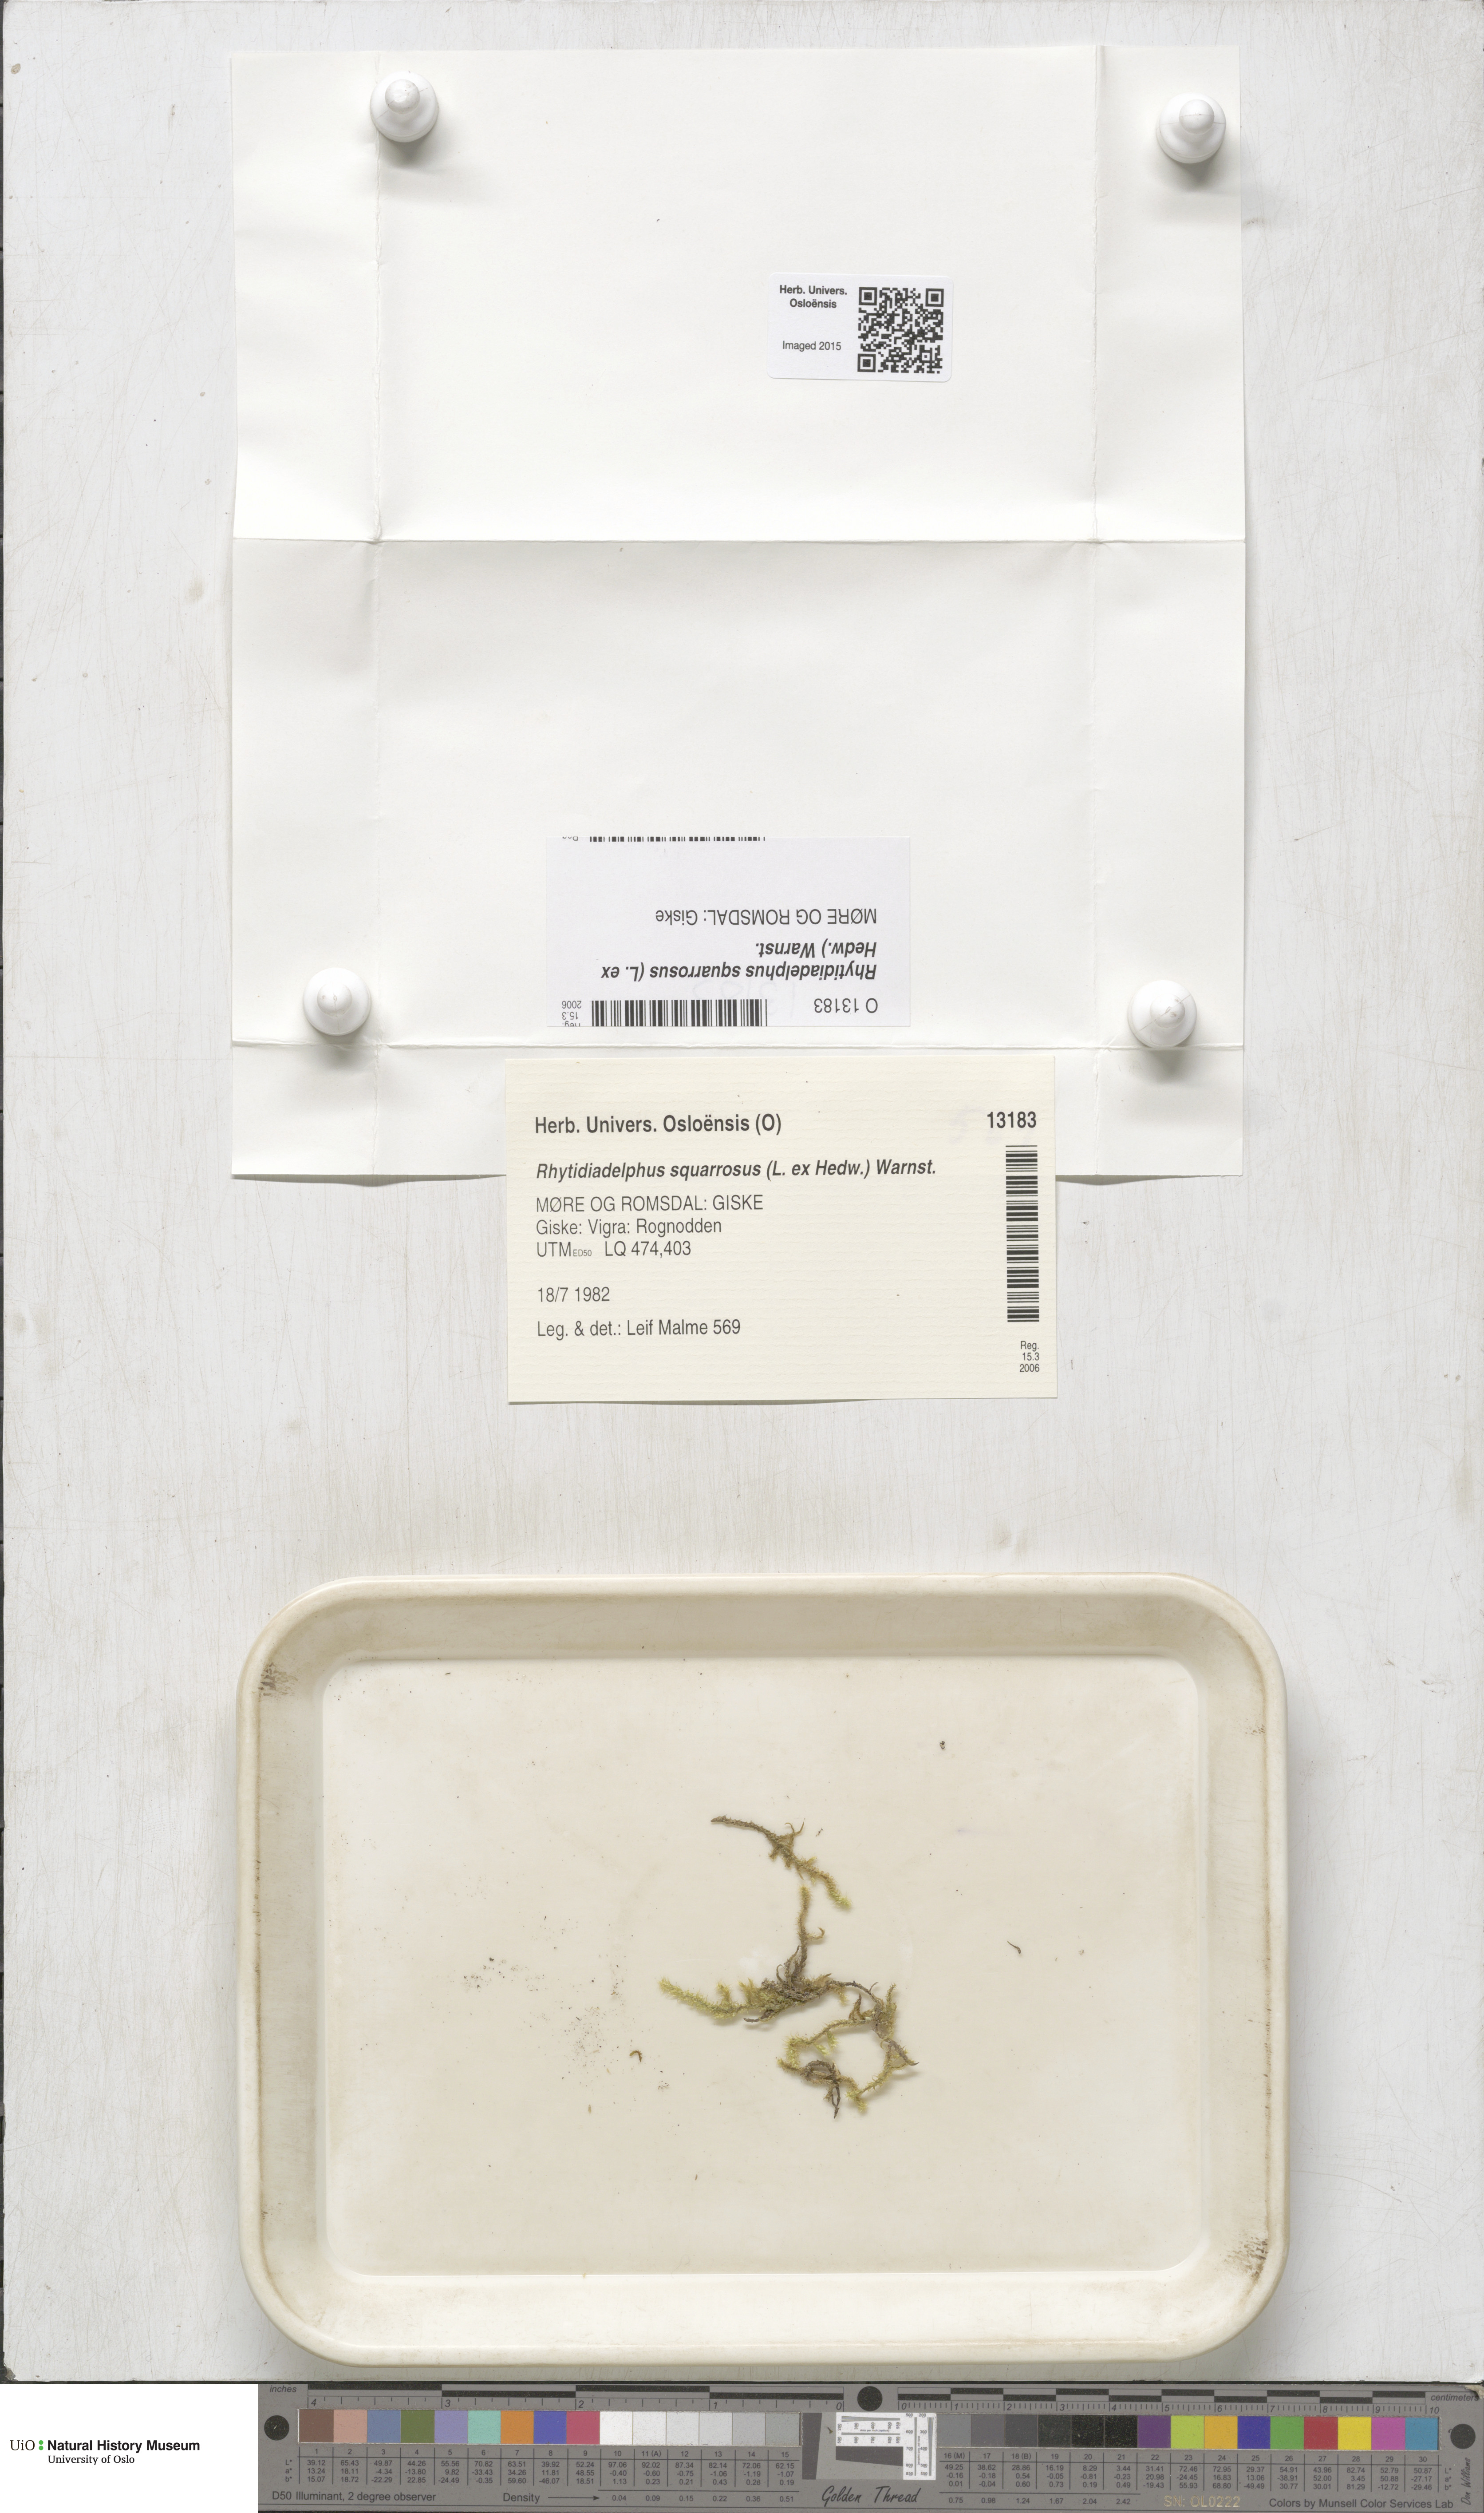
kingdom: Plantae
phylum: Bryophyta
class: Bryopsida
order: Hypnales
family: Hylocomiaceae
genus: Rhytidiadelphus
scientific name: Rhytidiadelphus squarrosus
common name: Springy turf-moss
